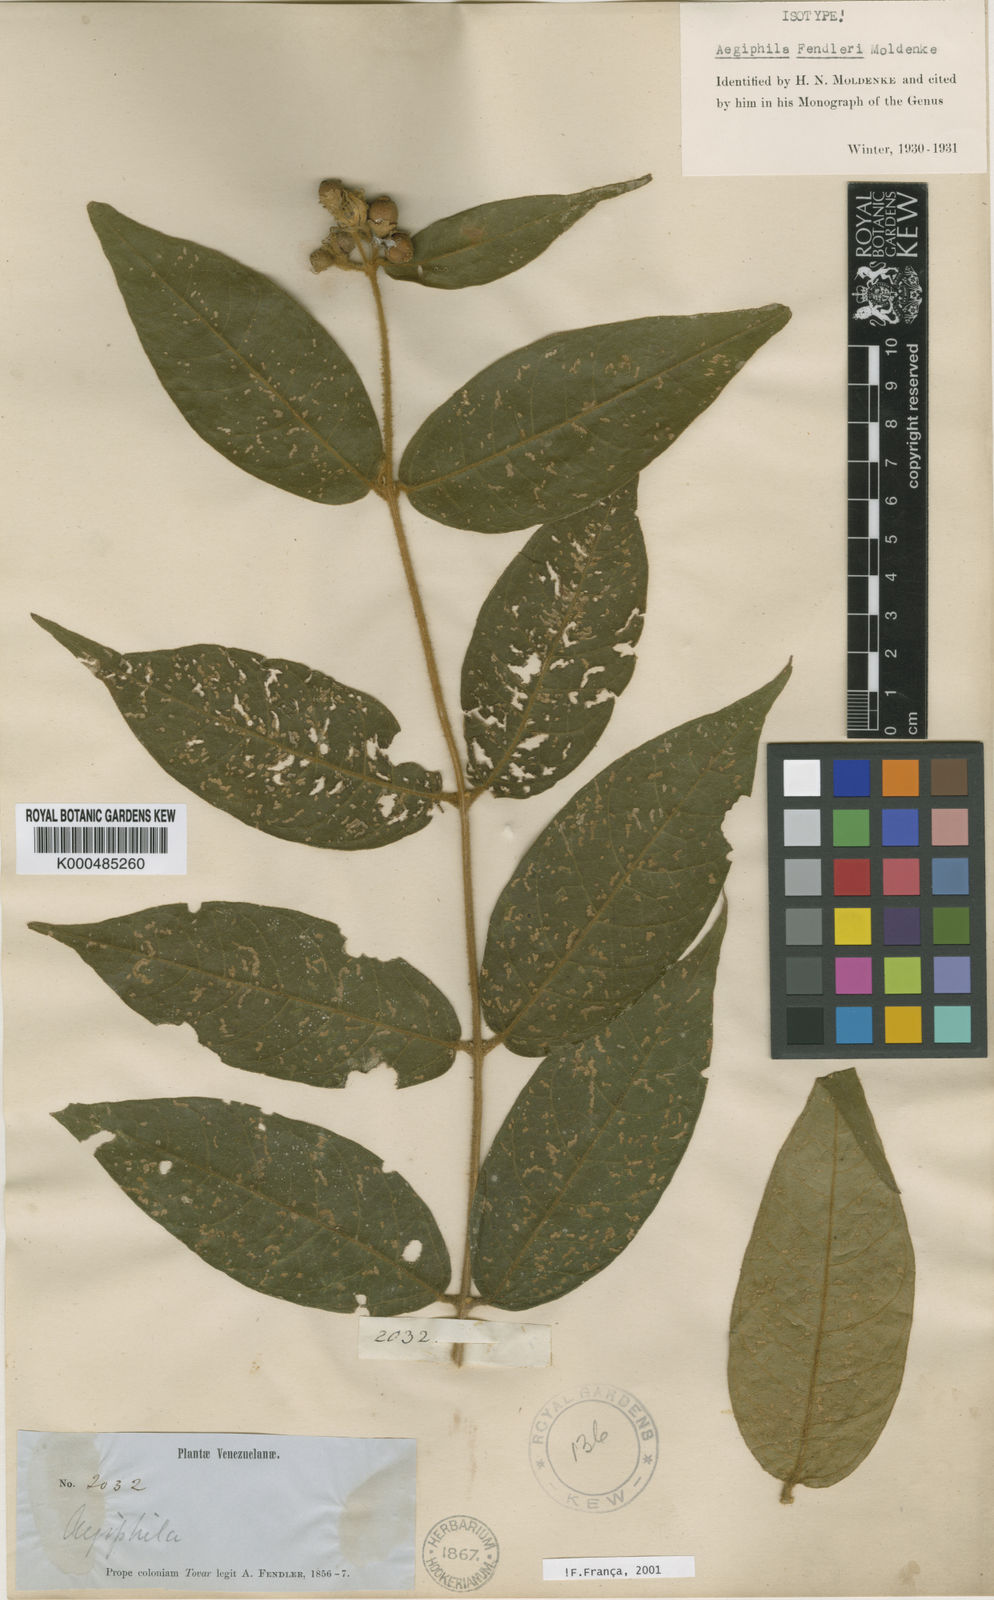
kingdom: Plantae
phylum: Tracheophyta
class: Magnoliopsida
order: Lamiales
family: Lamiaceae
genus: Aegiphila
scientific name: Aegiphila fendleri
